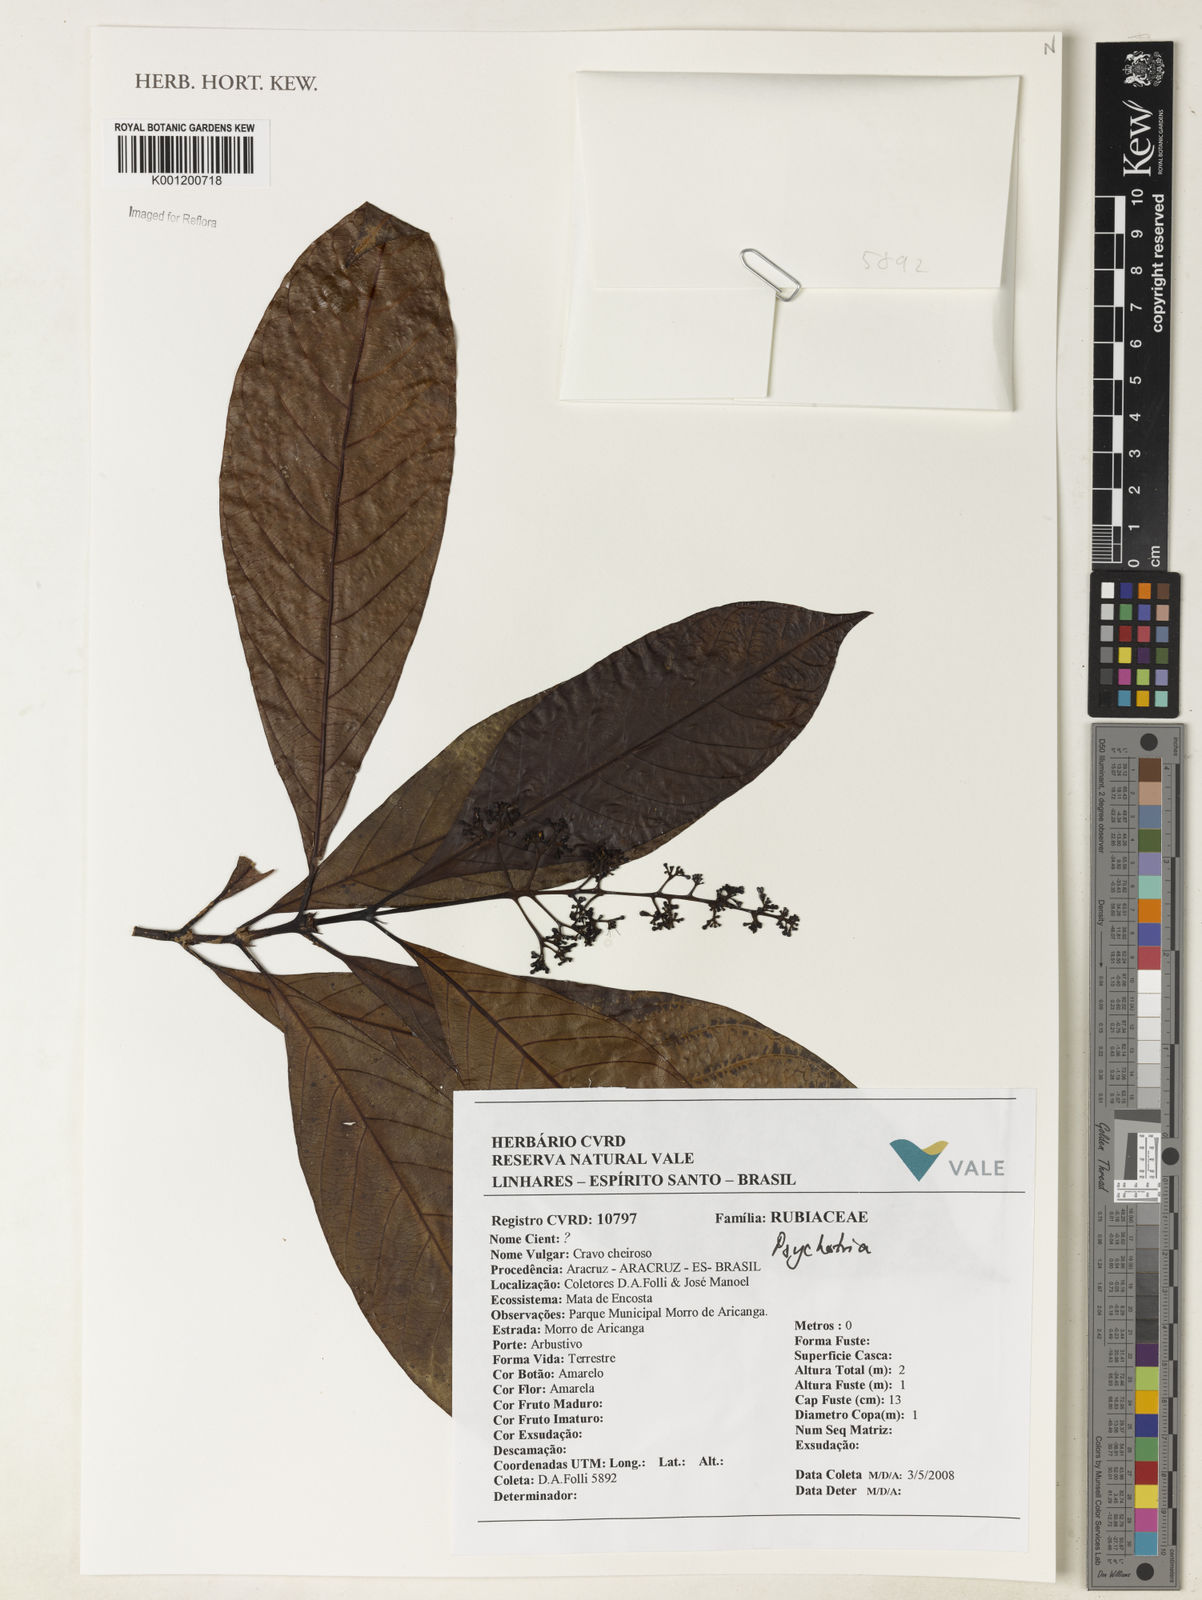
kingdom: Plantae
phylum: Tracheophyta
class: Magnoliopsida
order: Gentianales
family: Rubiaceae
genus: Psychotria
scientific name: Psychotria
